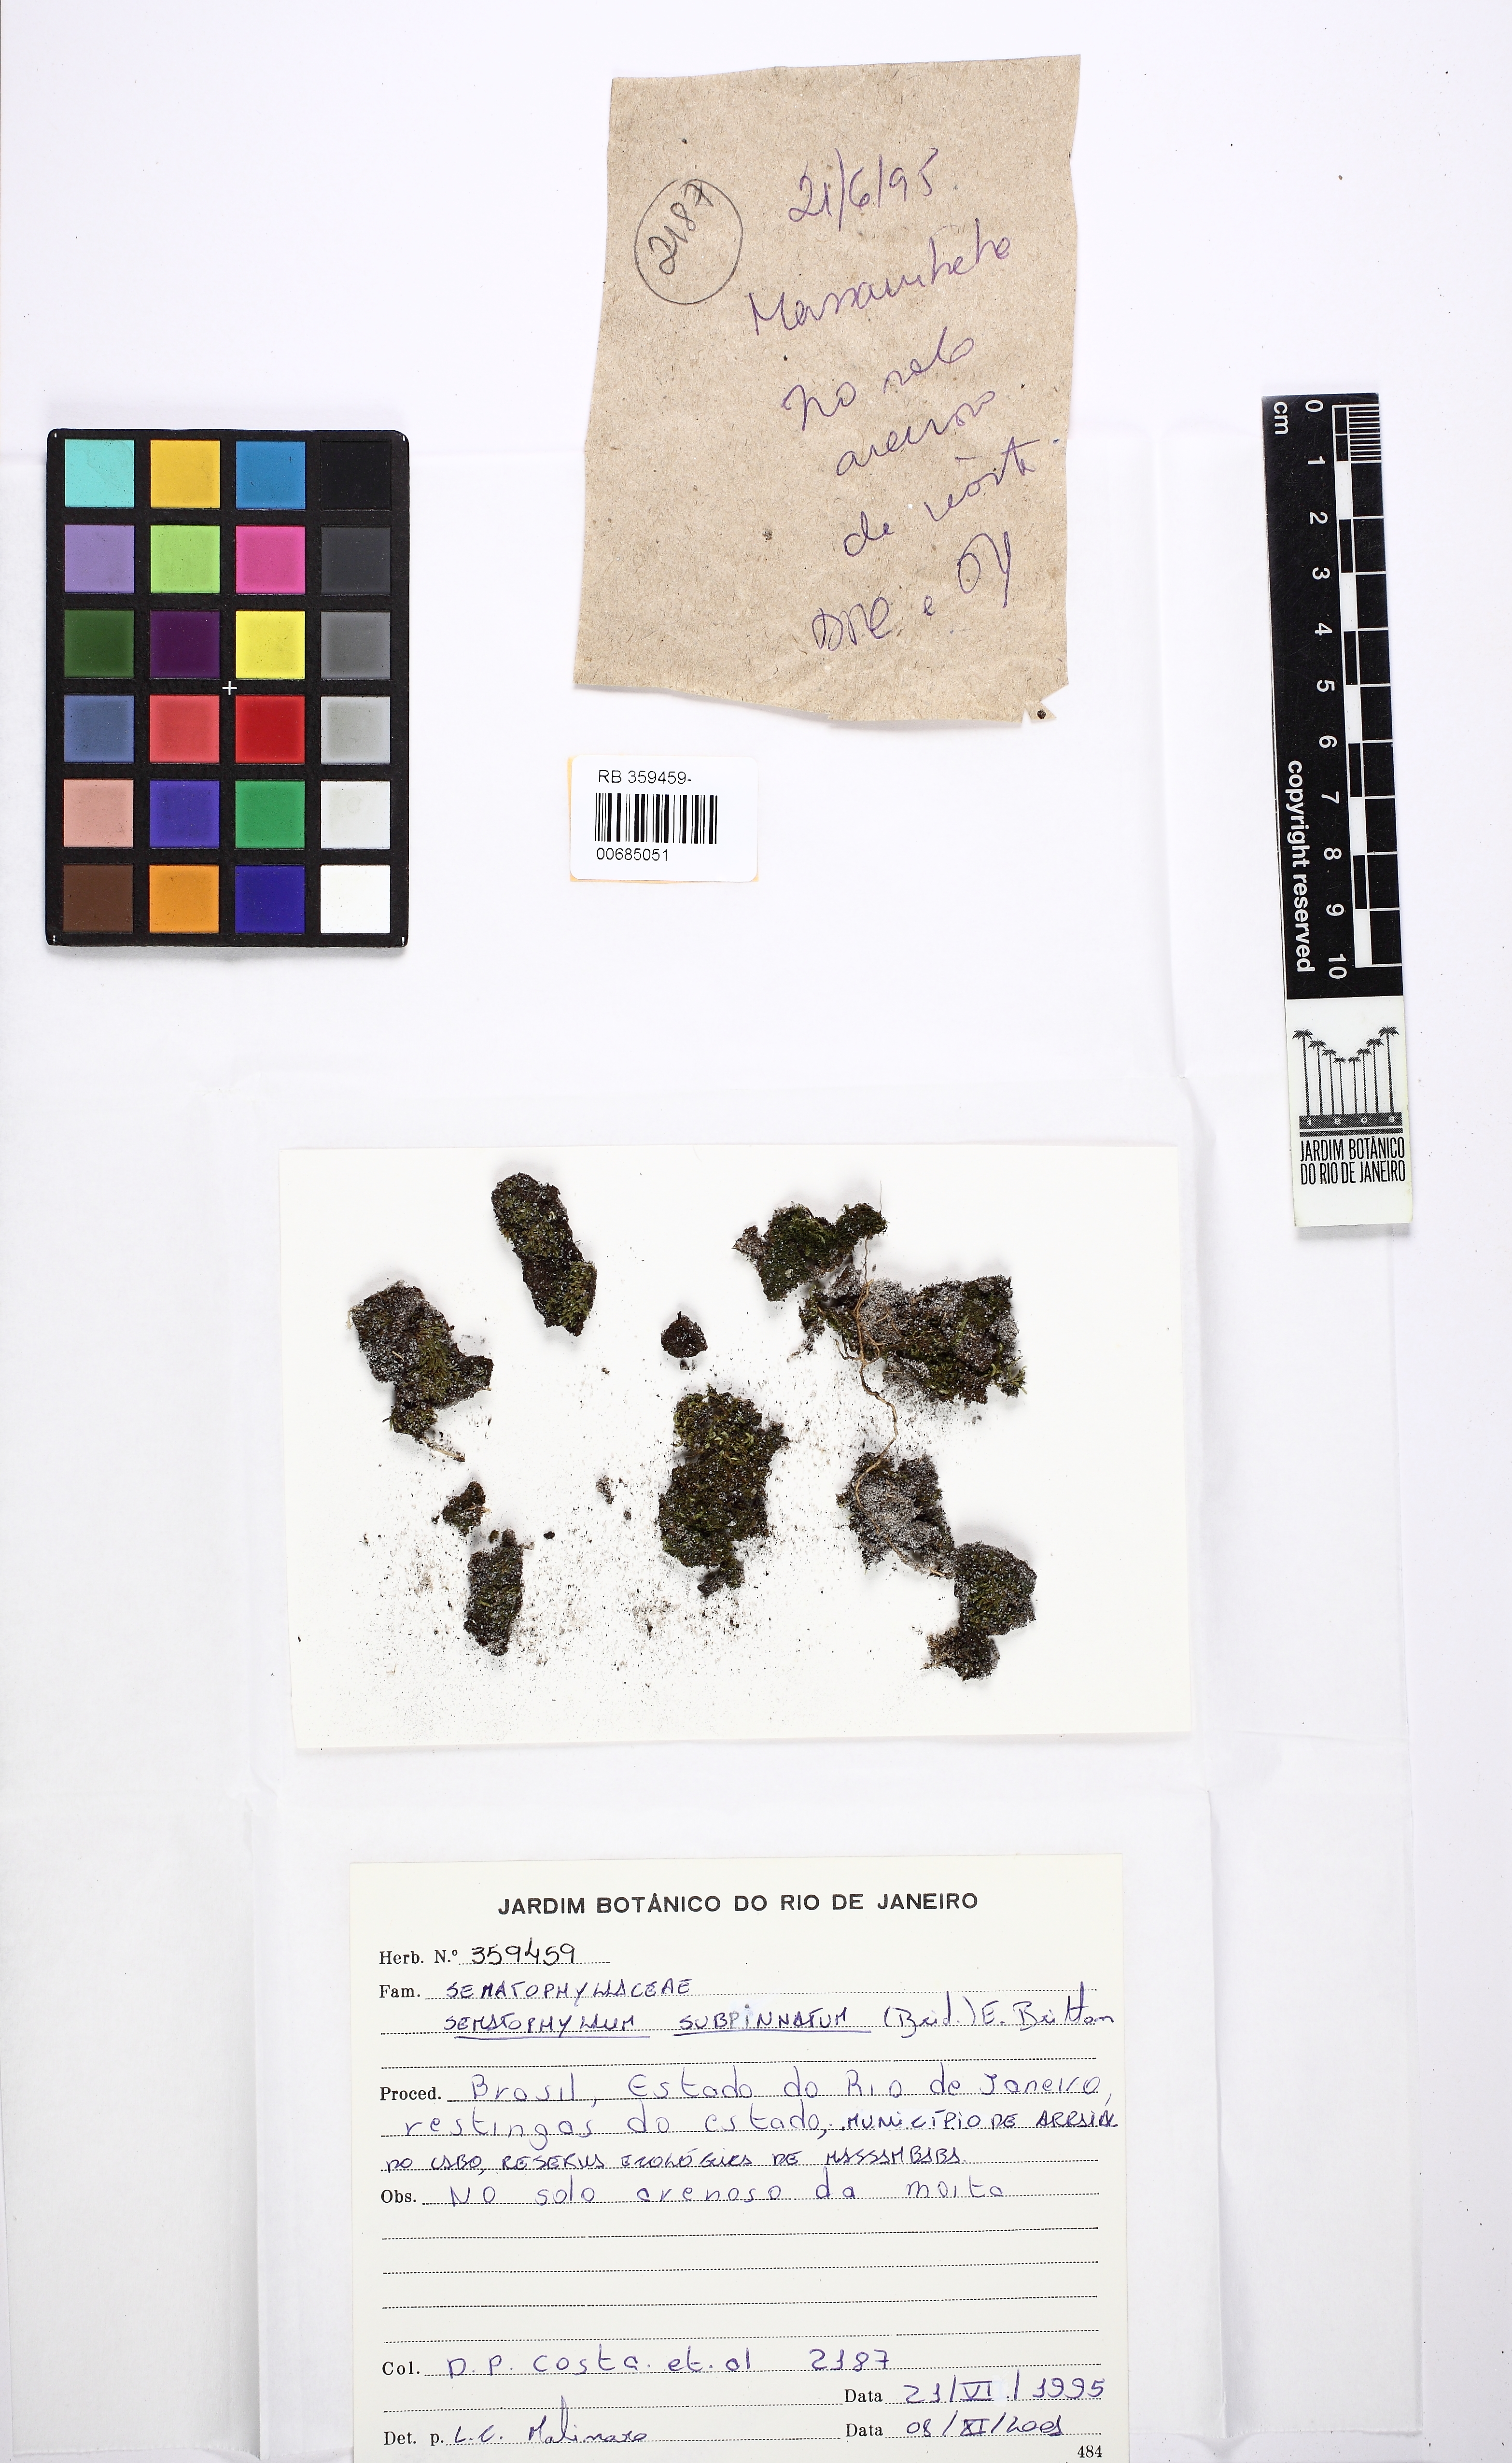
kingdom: Plantae
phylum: Bryophyta
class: Bryopsida
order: Hypnales
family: Sematophyllaceae
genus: Brittonodoxa
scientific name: Brittonodoxa subpinnata
